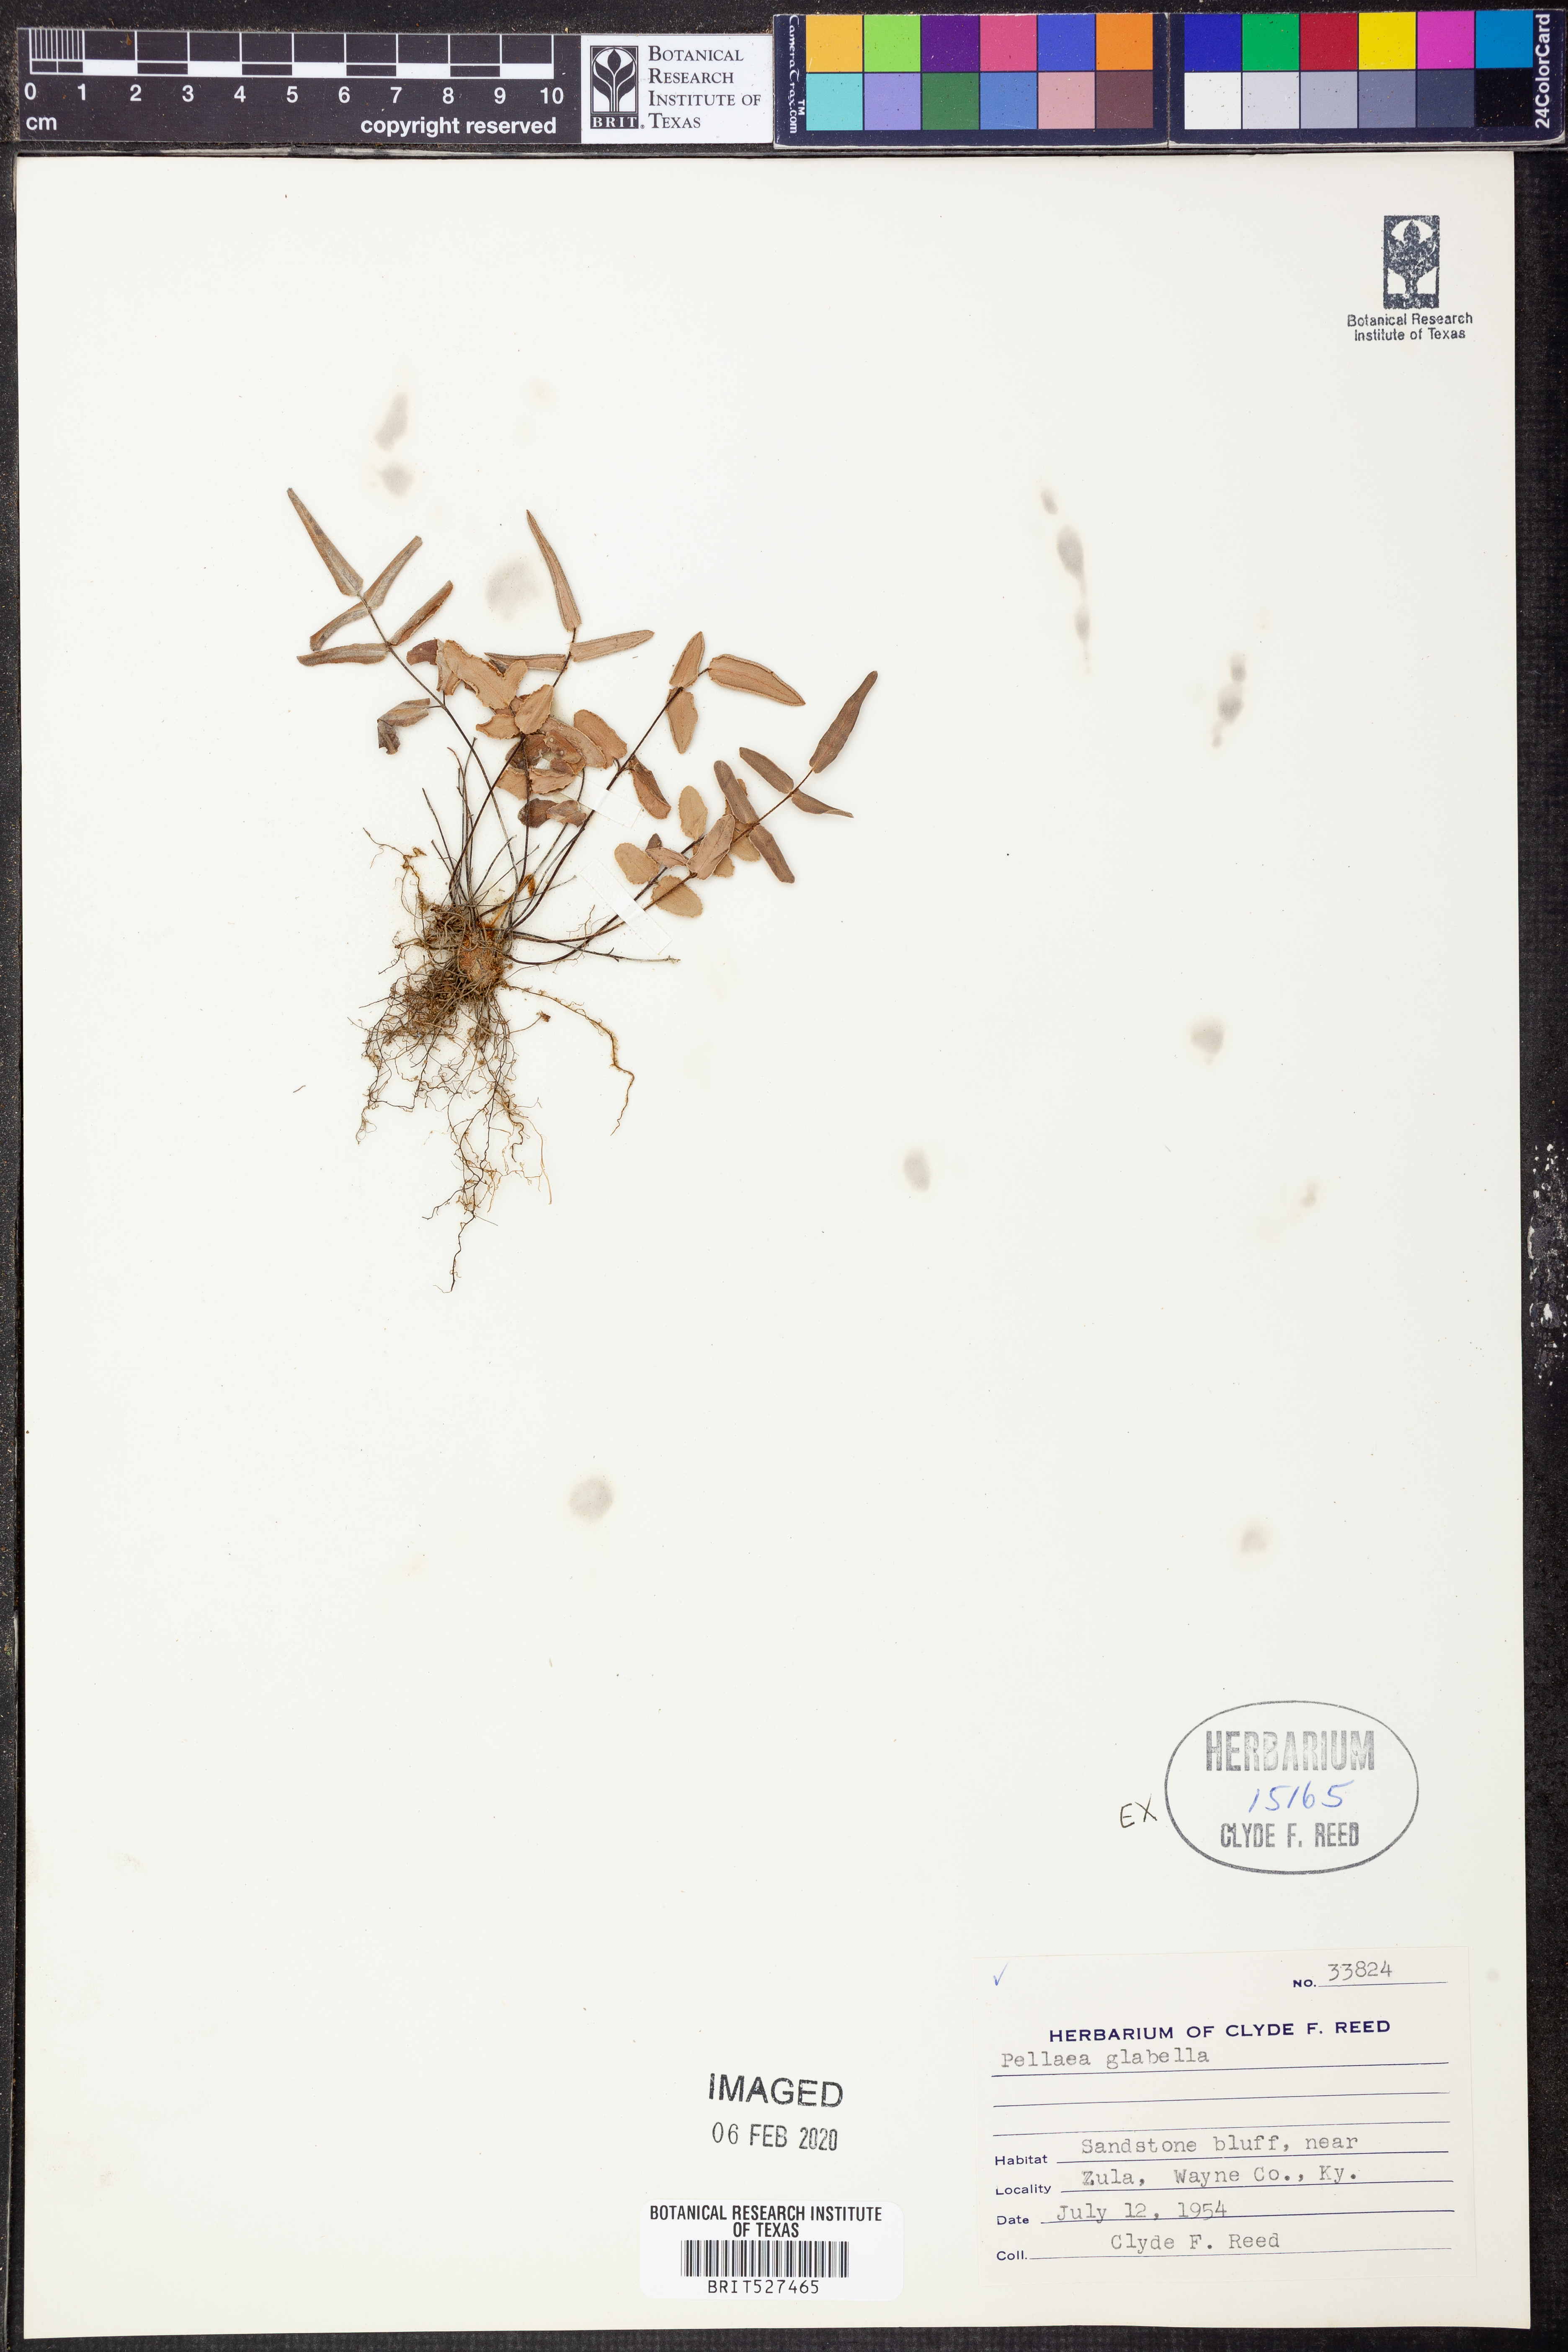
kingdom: Plantae
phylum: Tracheophyta
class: Polypodiopsida
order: Polypodiales
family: Pteridaceae
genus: Pellaea
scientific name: Pellaea glabella
